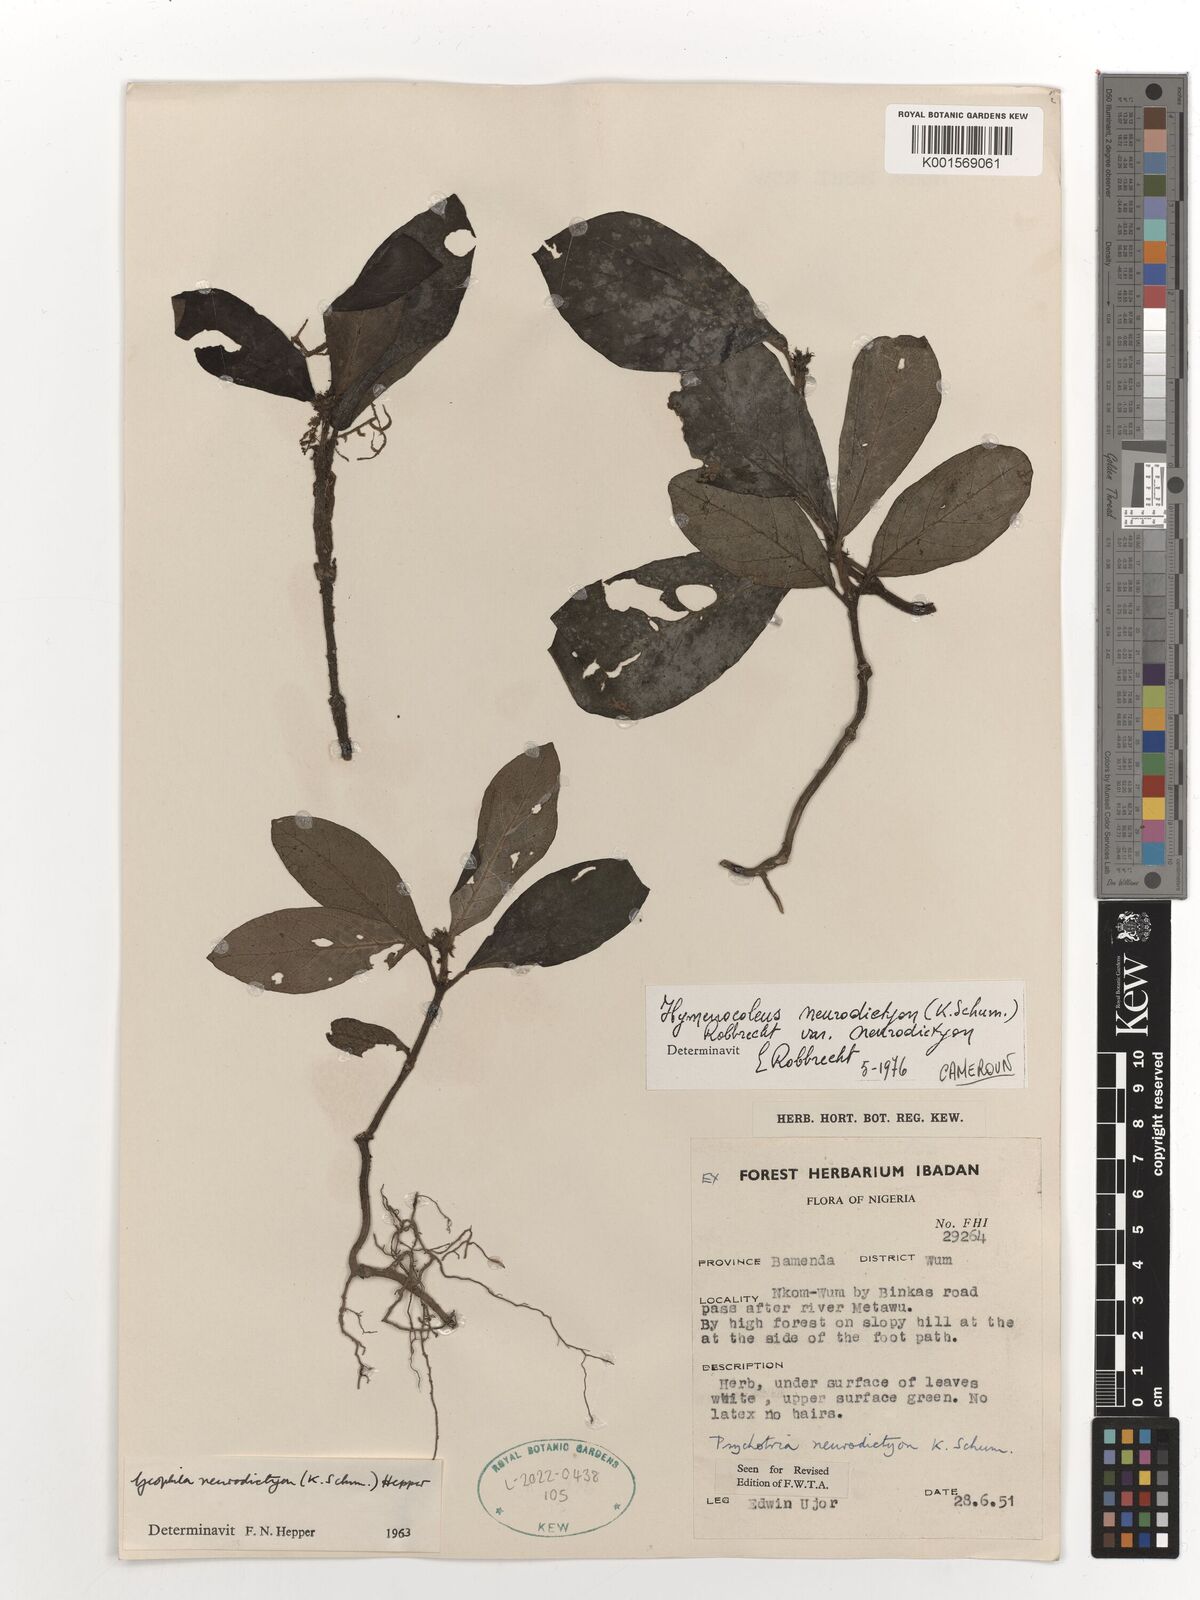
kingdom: Plantae
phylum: Tracheophyta
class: Magnoliopsida
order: Gentianales
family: Rubiaceae
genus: Hymenocoleus
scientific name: Hymenocoleus neurodictyon
